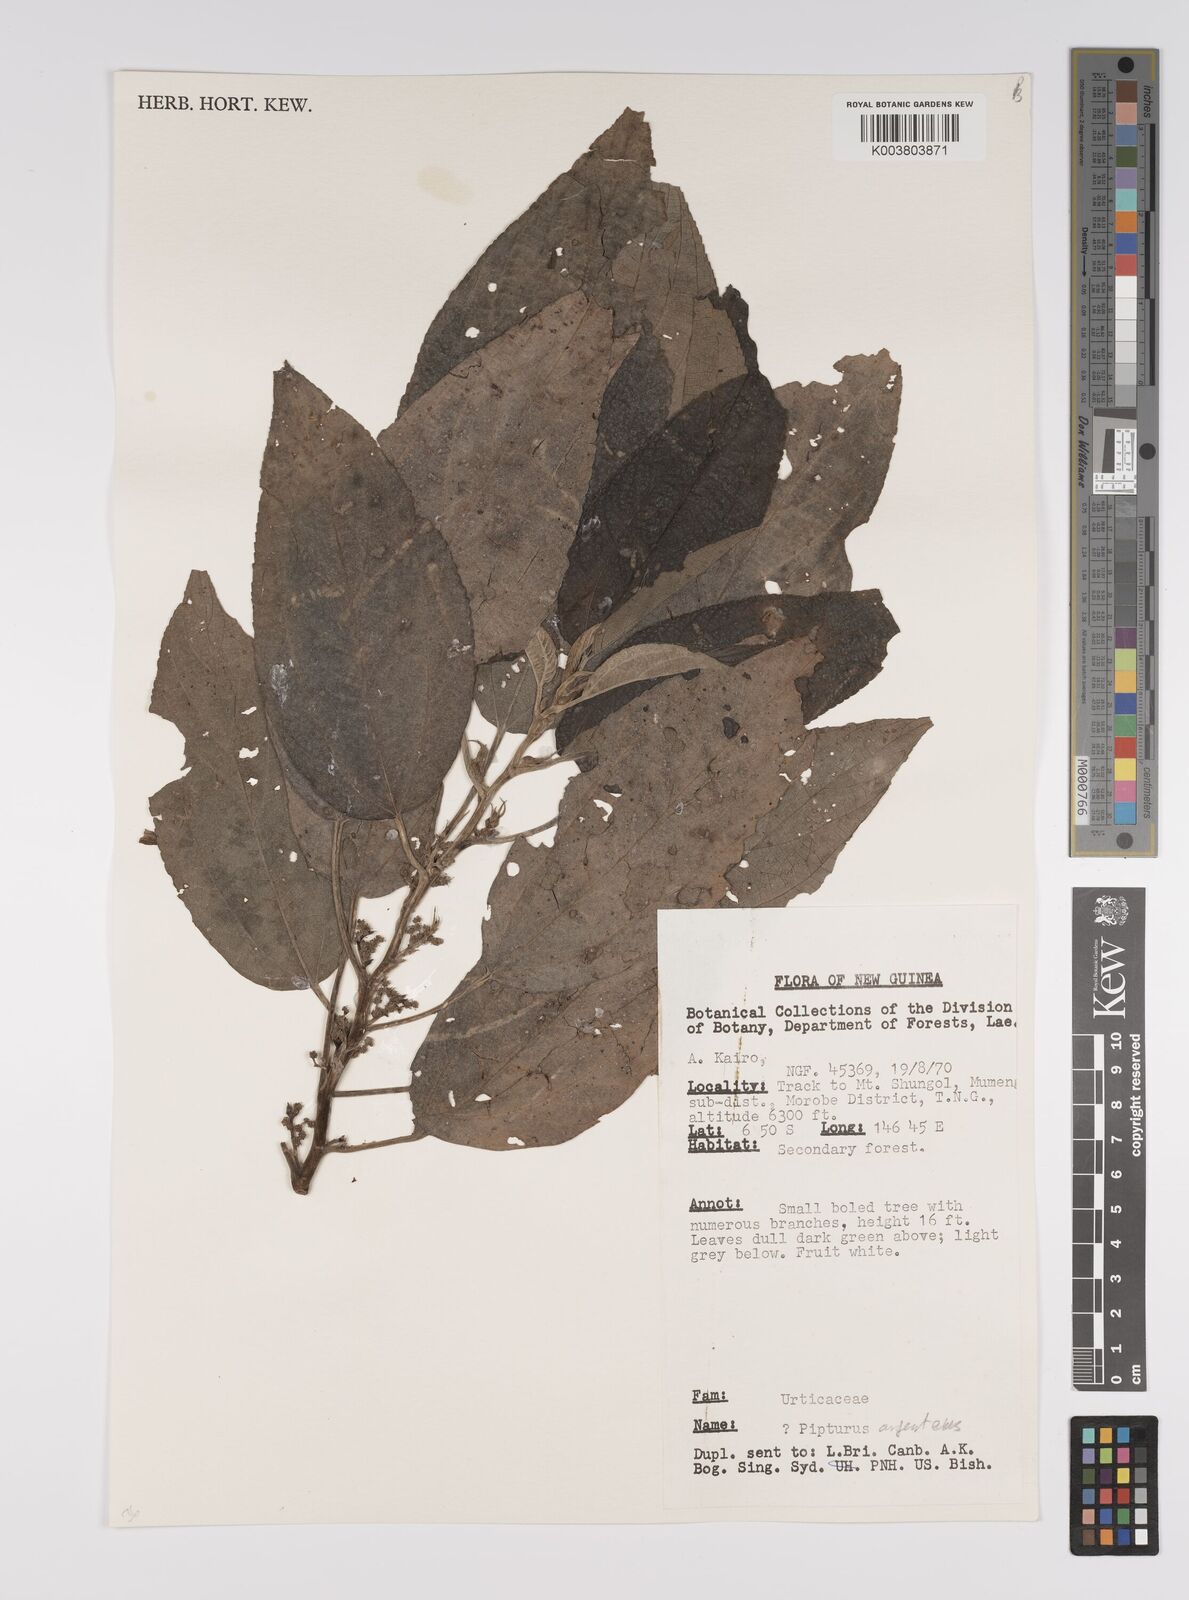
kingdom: Plantae
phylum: Tracheophyta
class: Magnoliopsida
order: Rosales
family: Urticaceae
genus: Pipturus
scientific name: Pipturus argenteus
